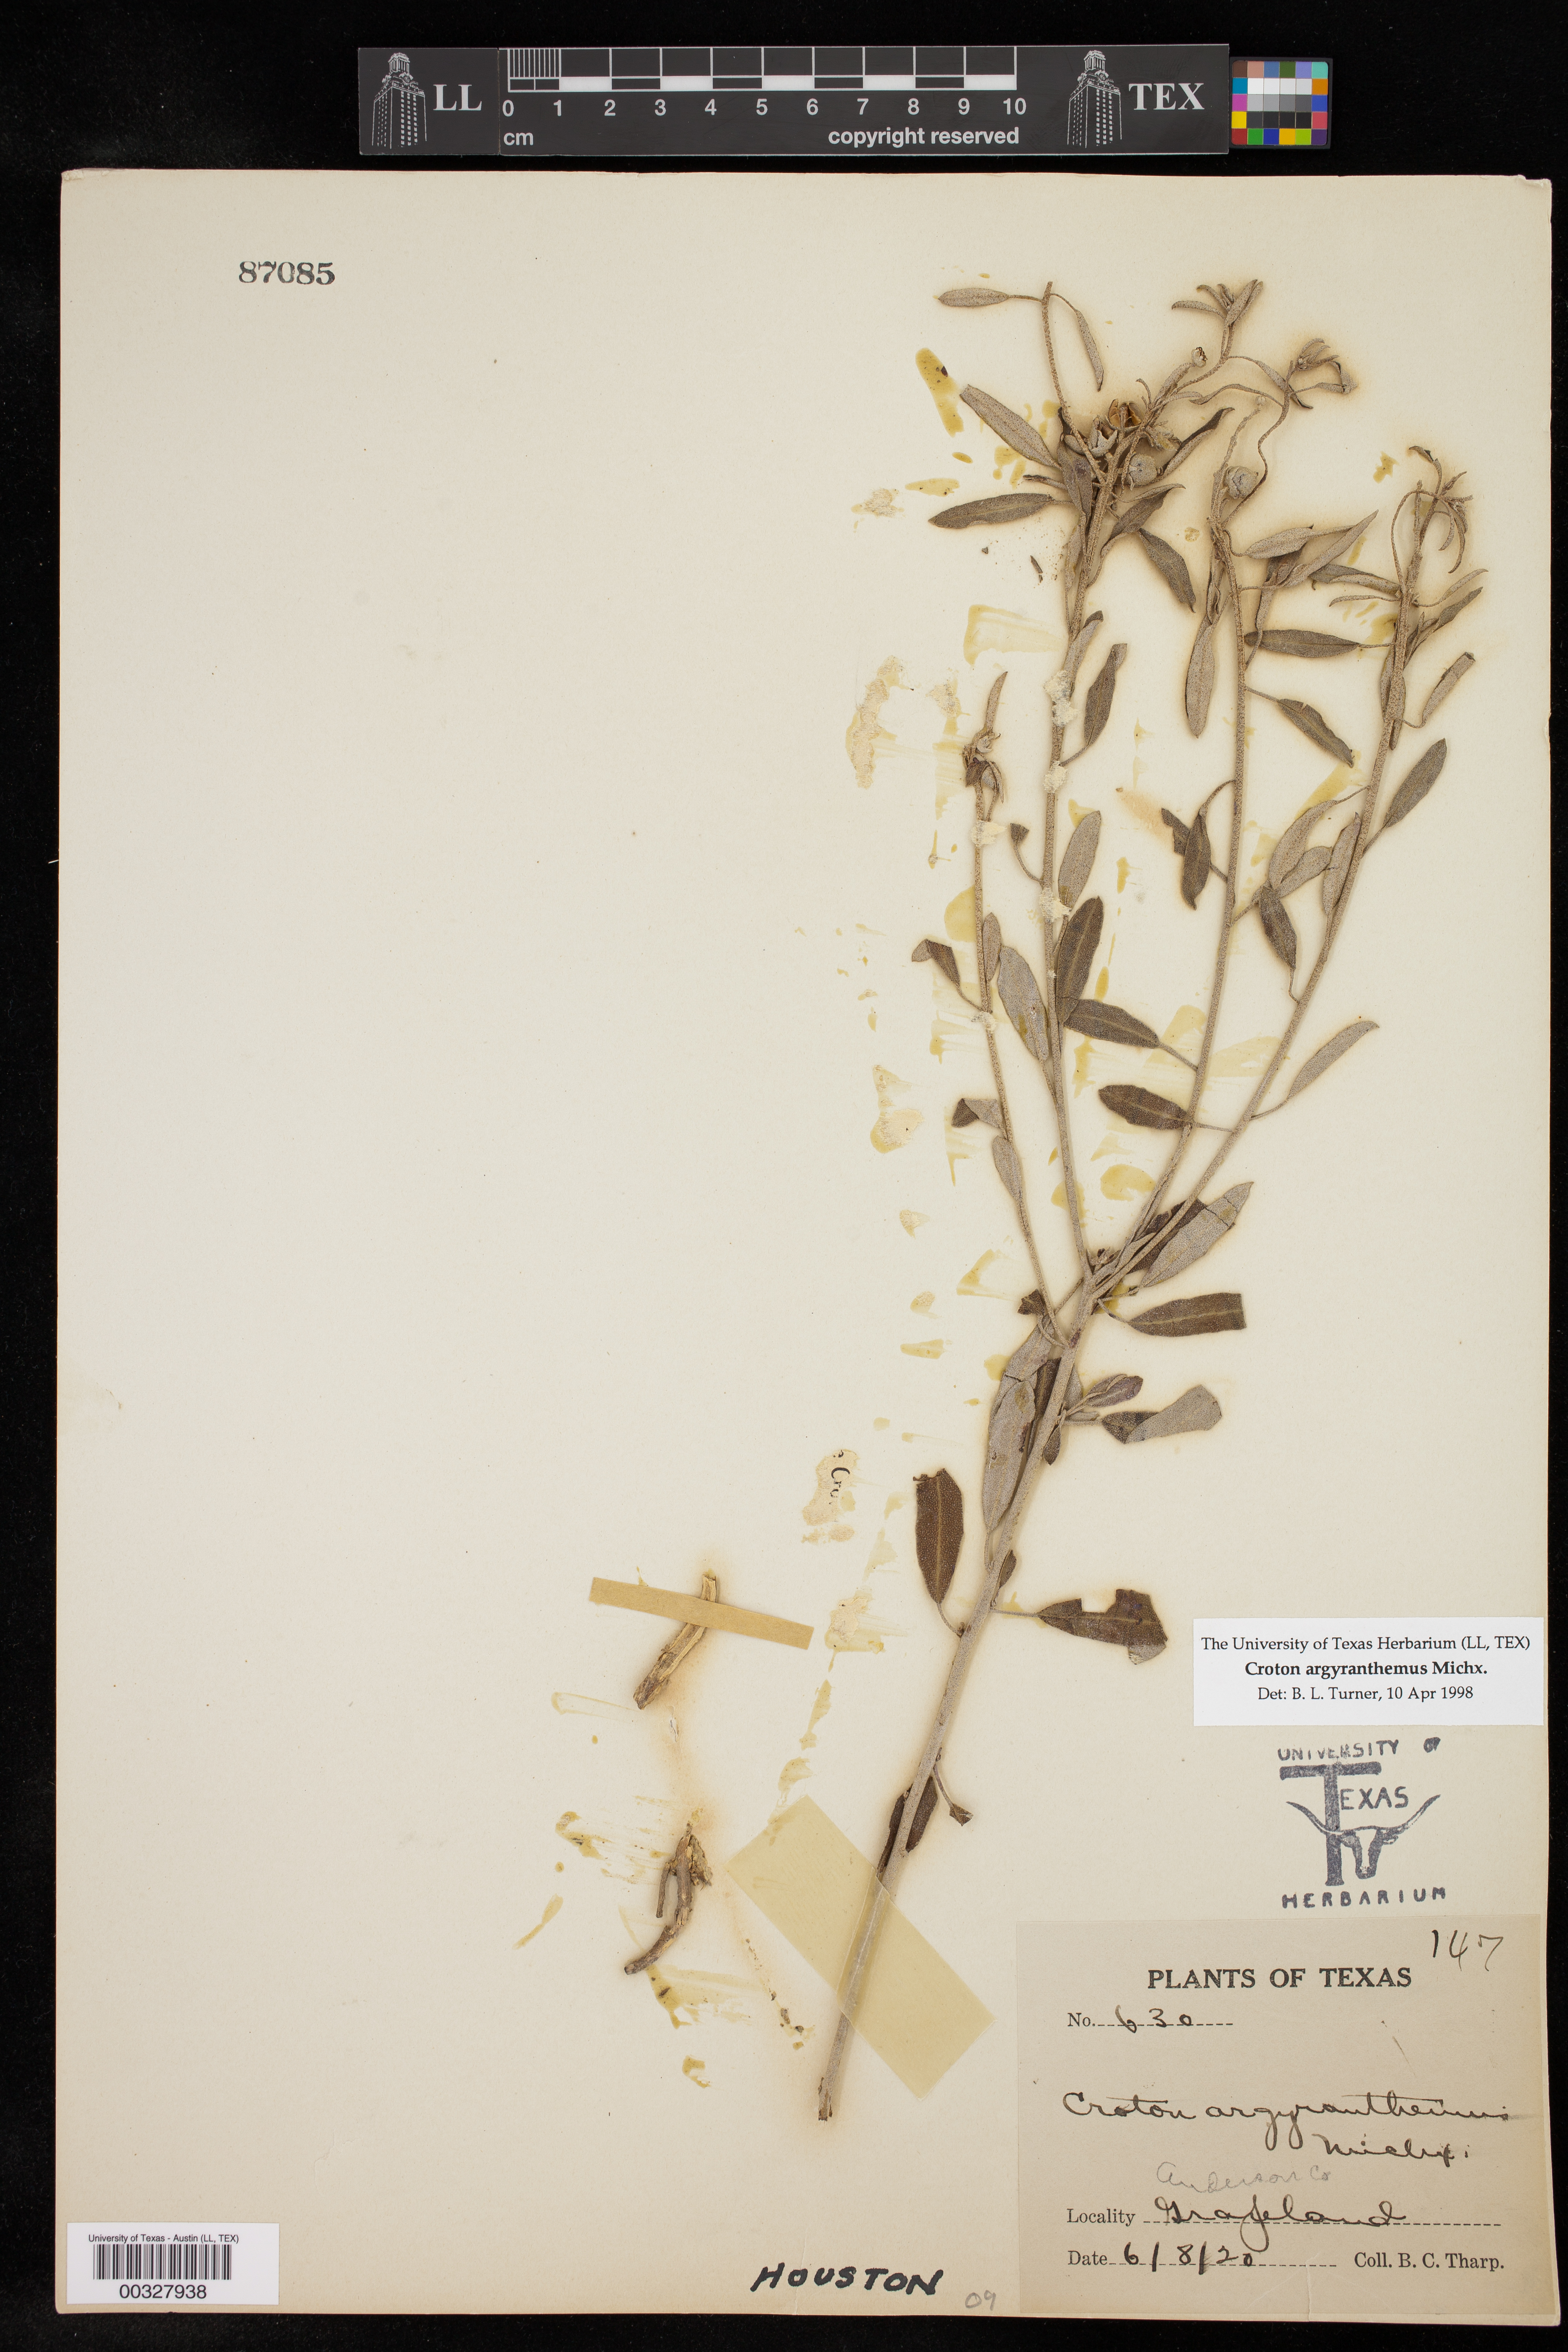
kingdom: Plantae
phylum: Tracheophyta
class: Magnoliopsida
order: Malpighiales
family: Euphorbiaceae
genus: Croton
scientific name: Croton argyranthemus
